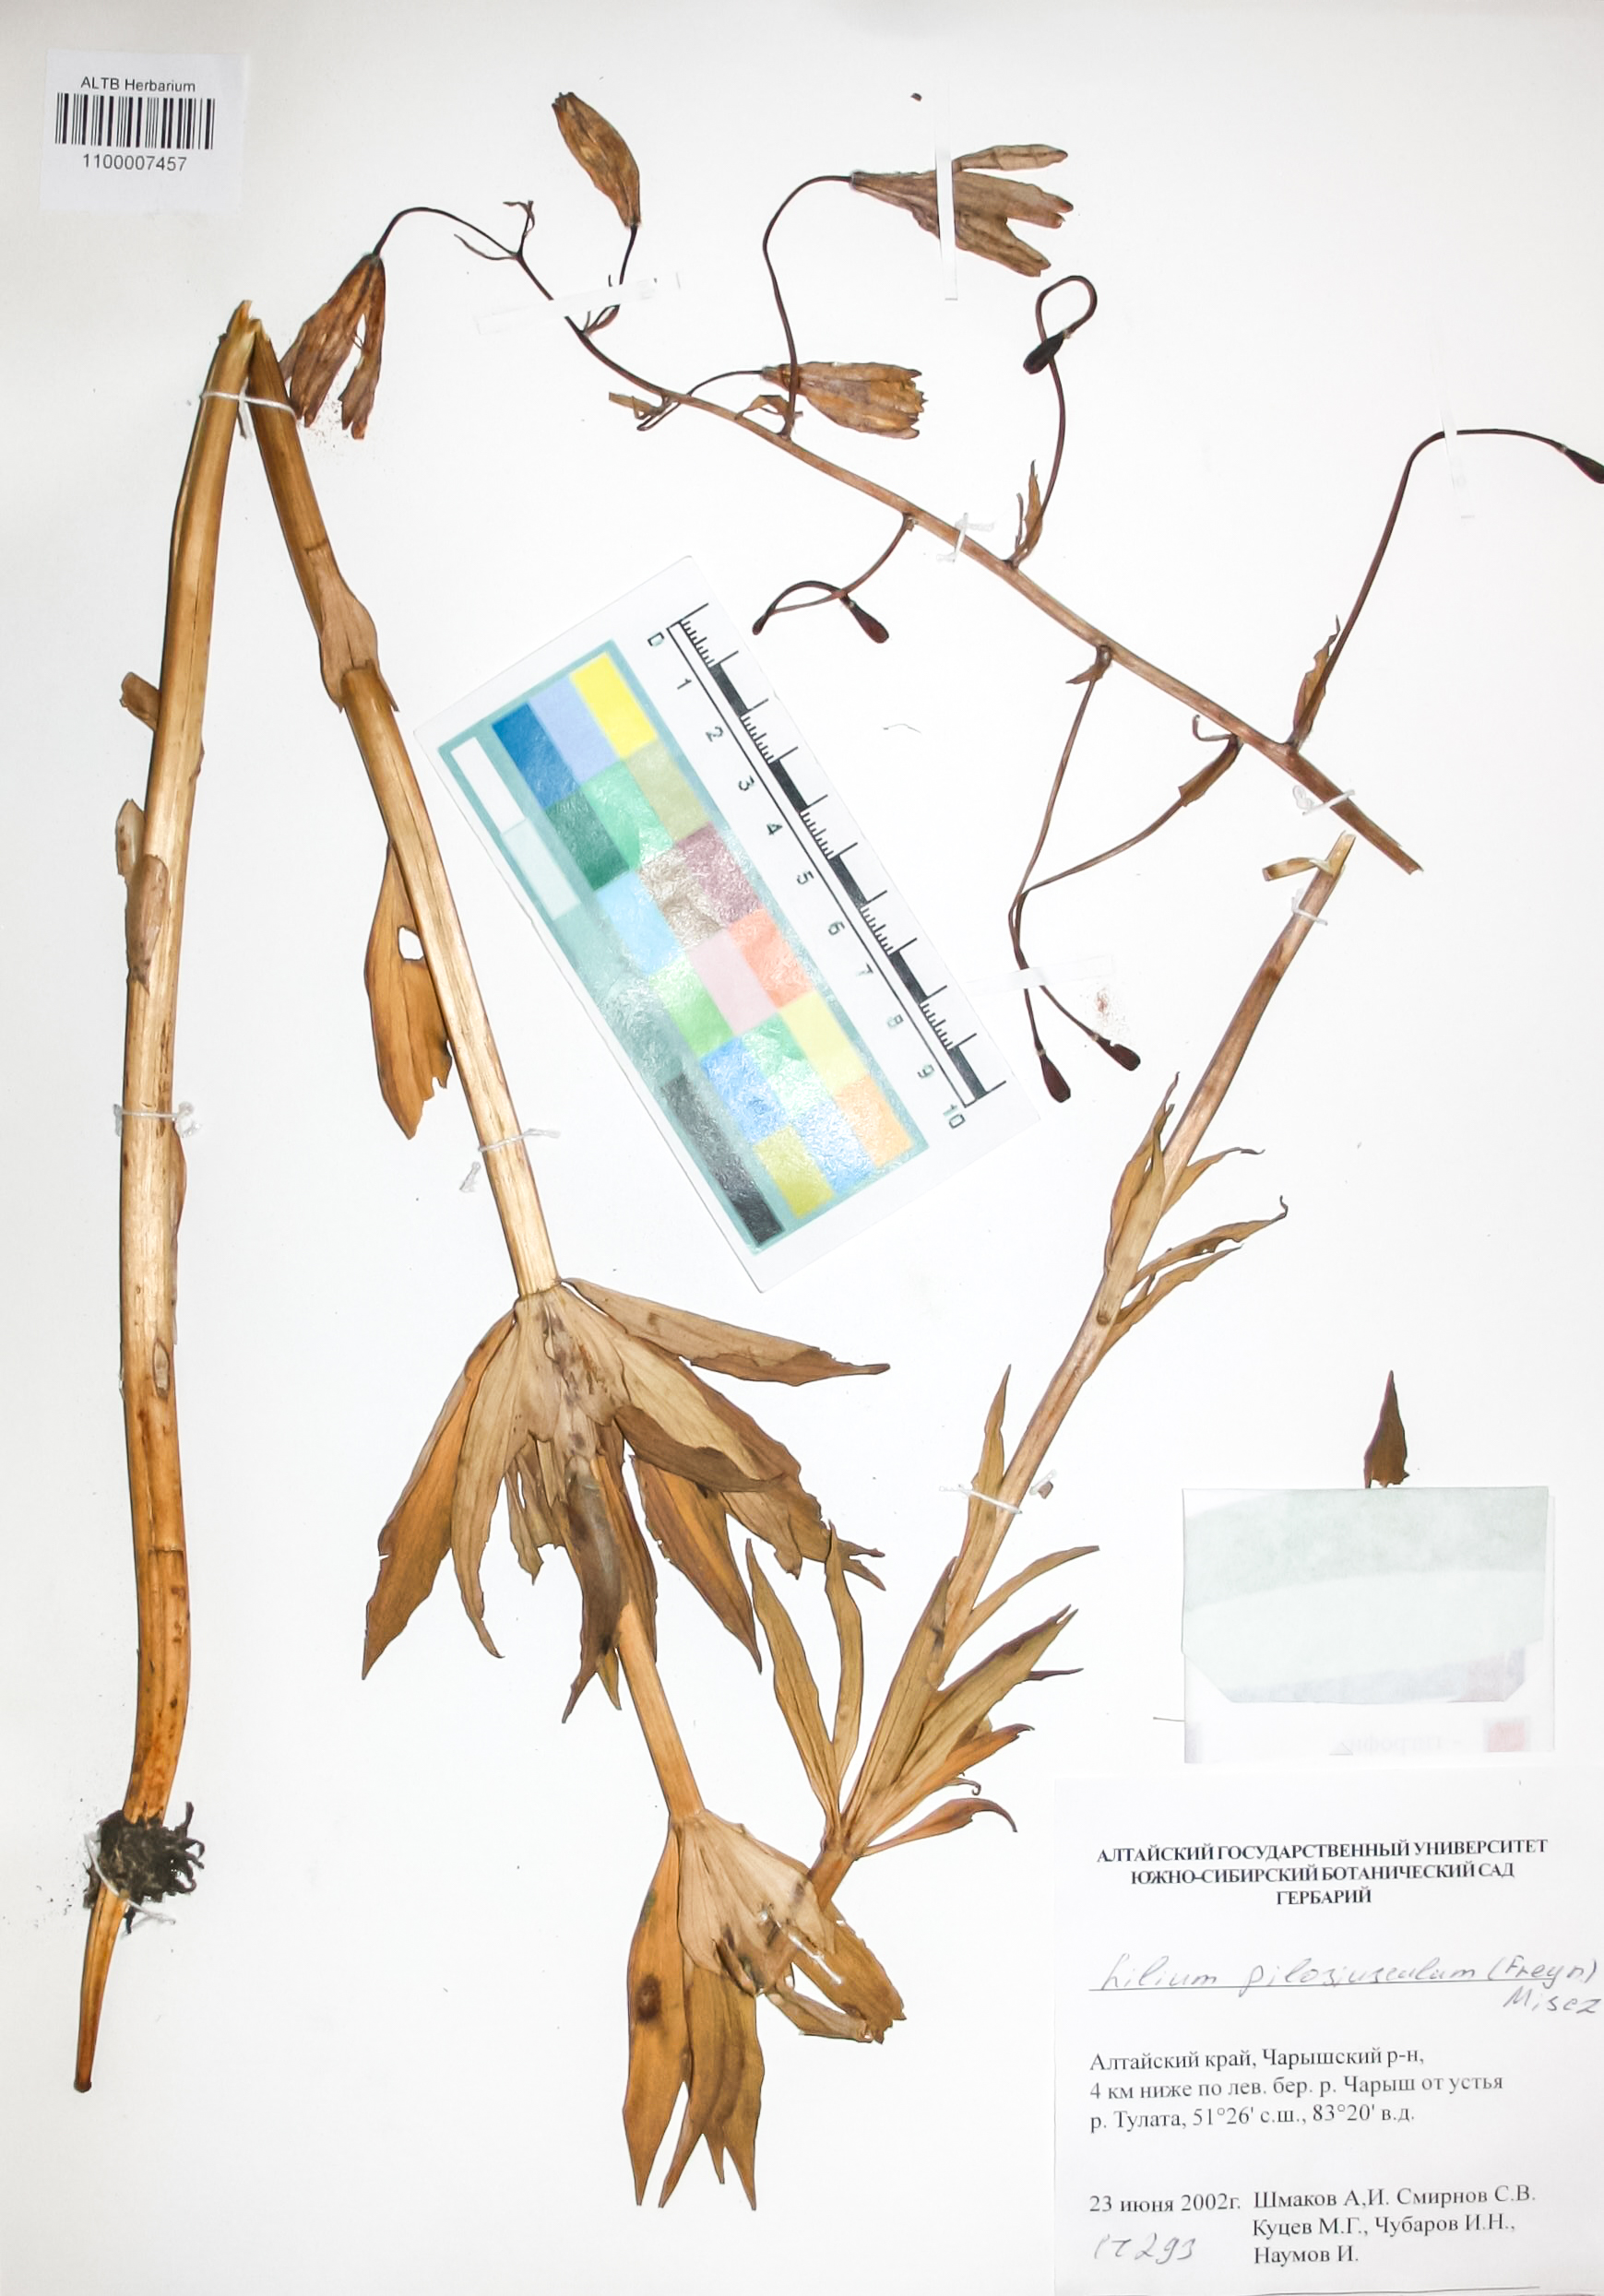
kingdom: Plantae
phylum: Tracheophyta
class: Liliopsida
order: Liliales
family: Liliaceae
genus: Lilium
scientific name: Lilium martagon
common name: Martagon lily
